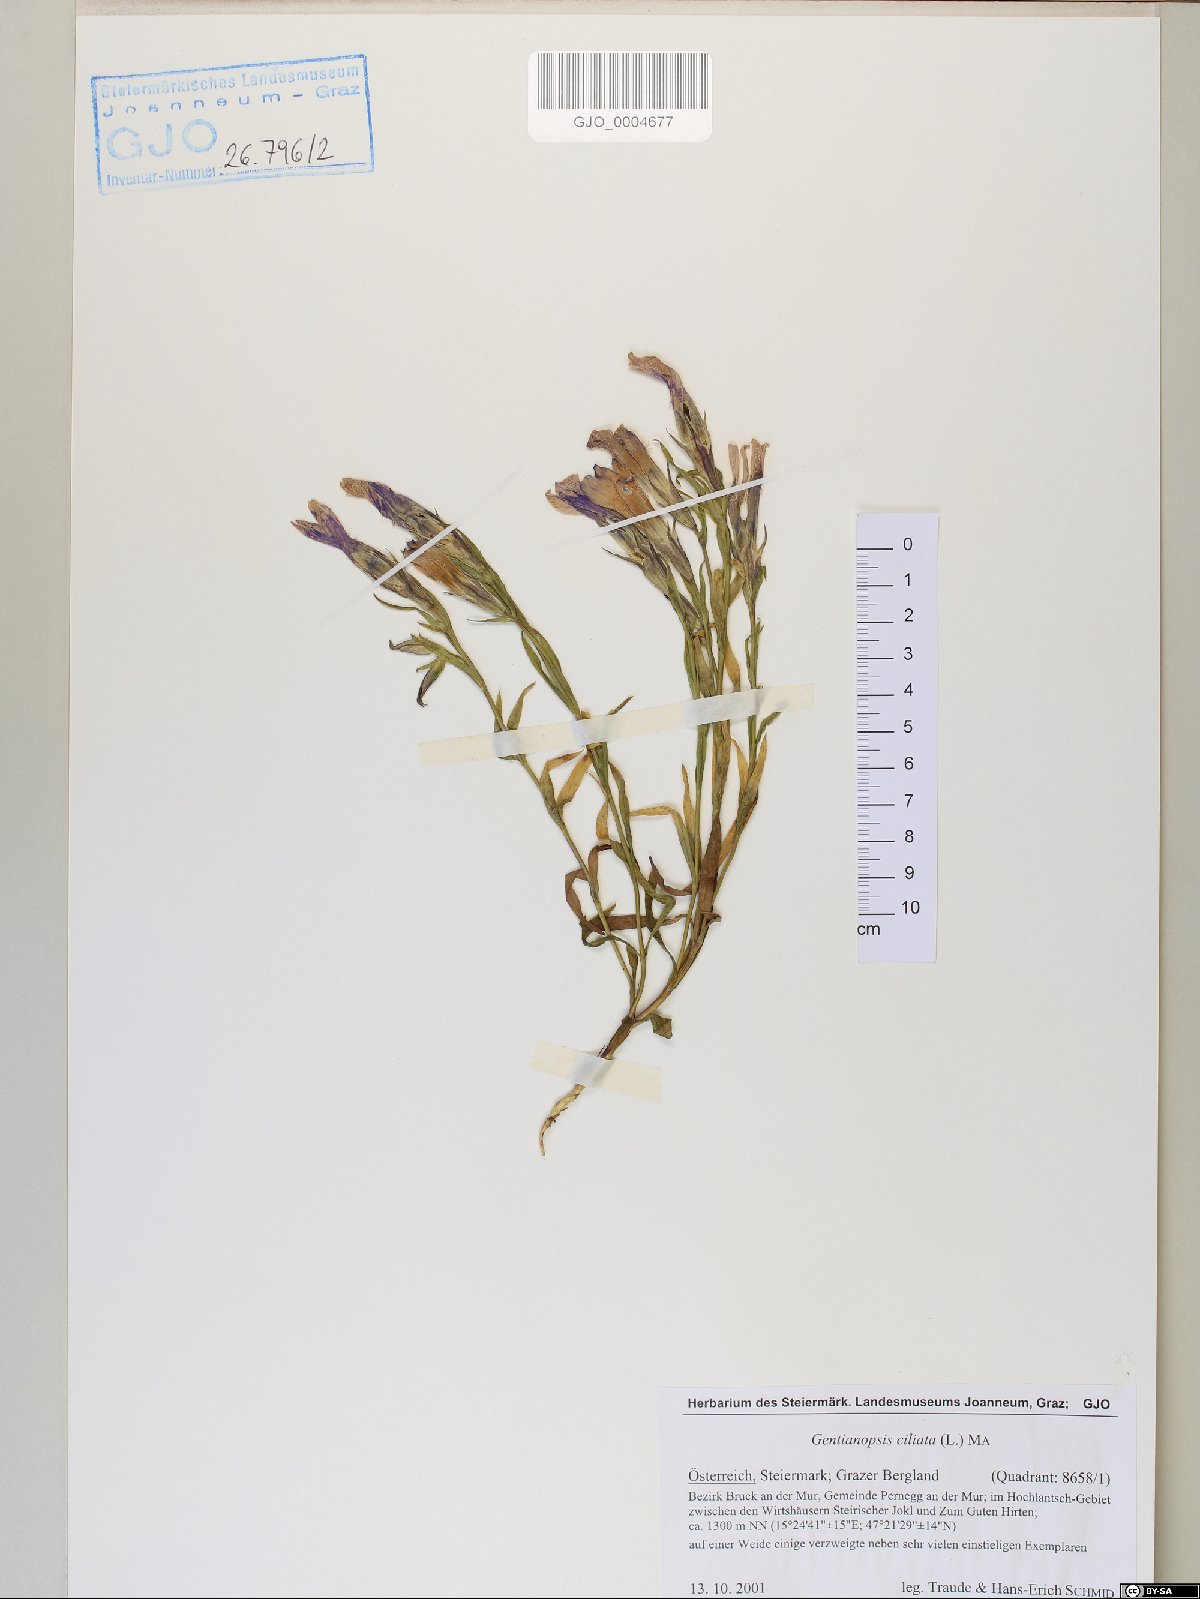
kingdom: Plantae
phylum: Tracheophyta
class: Magnoliopsida
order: Gentianales
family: Gentianaceae
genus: Gentianopsis
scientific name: Gentianopsis ciliata
